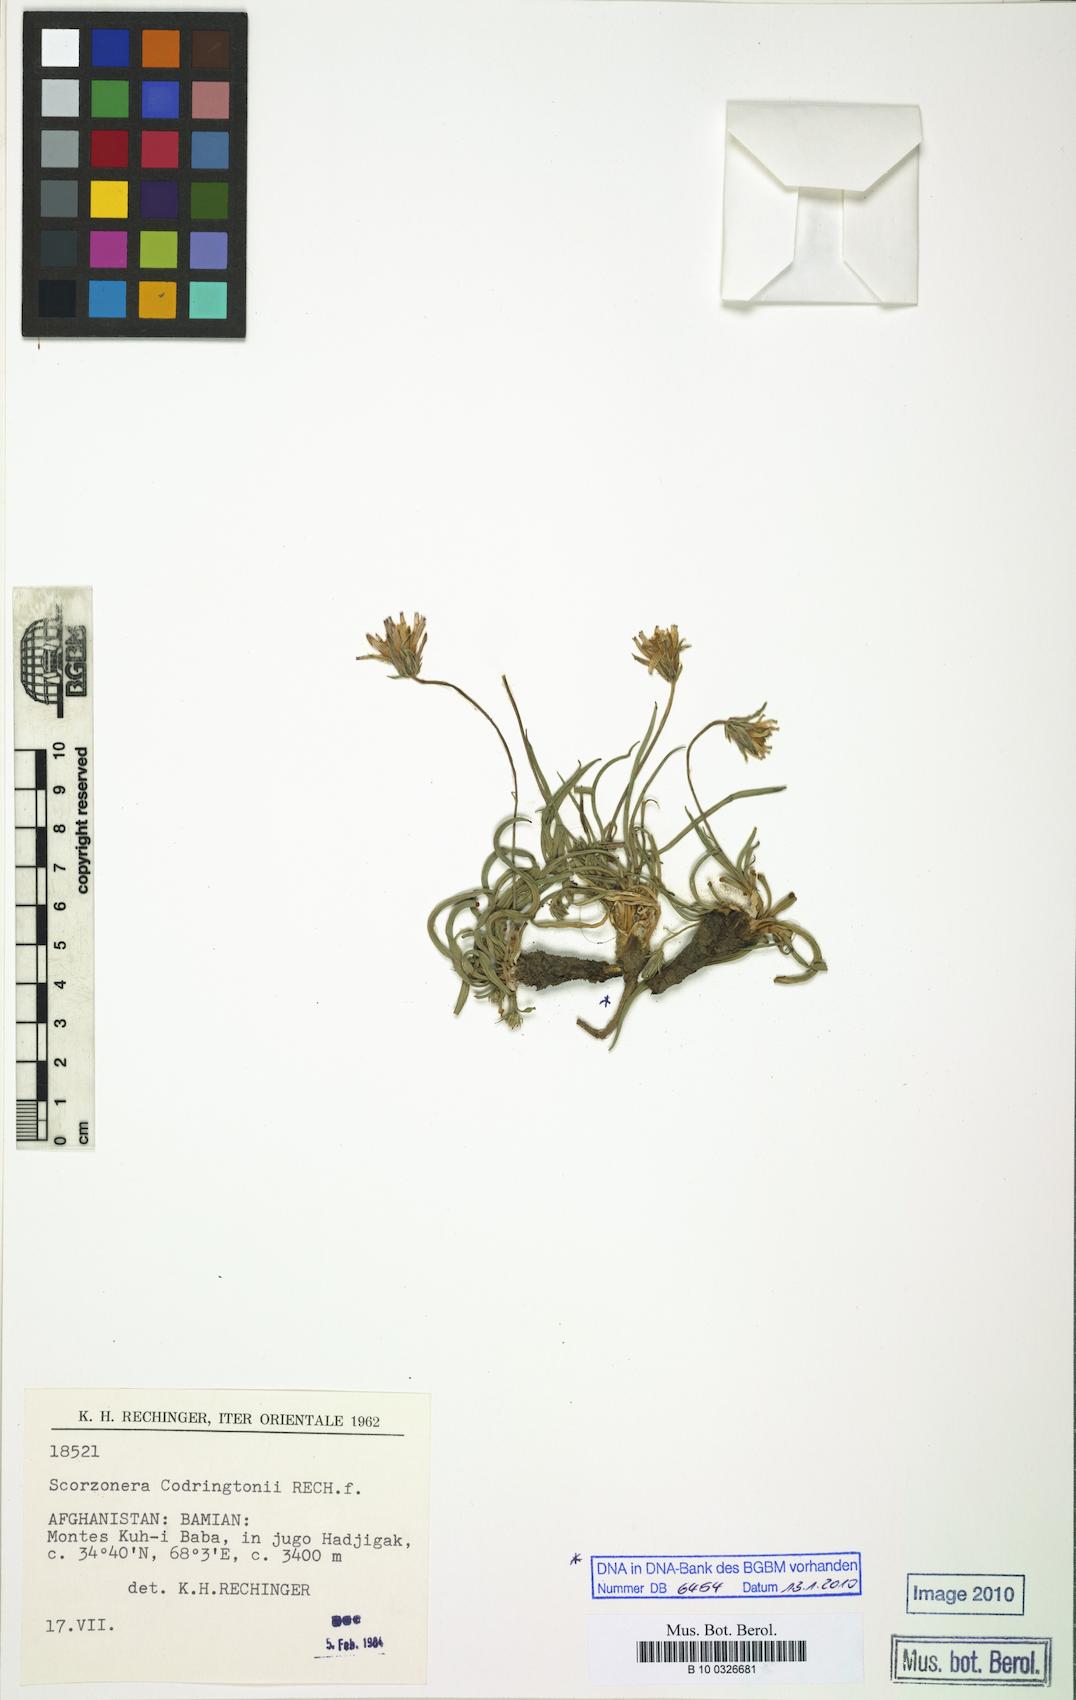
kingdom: Plantae
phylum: Tracheophyta
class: Magnoliopsida
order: Asterales
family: Asteraceae
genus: Pterachaenia
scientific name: Pterachaenia codringtonii
